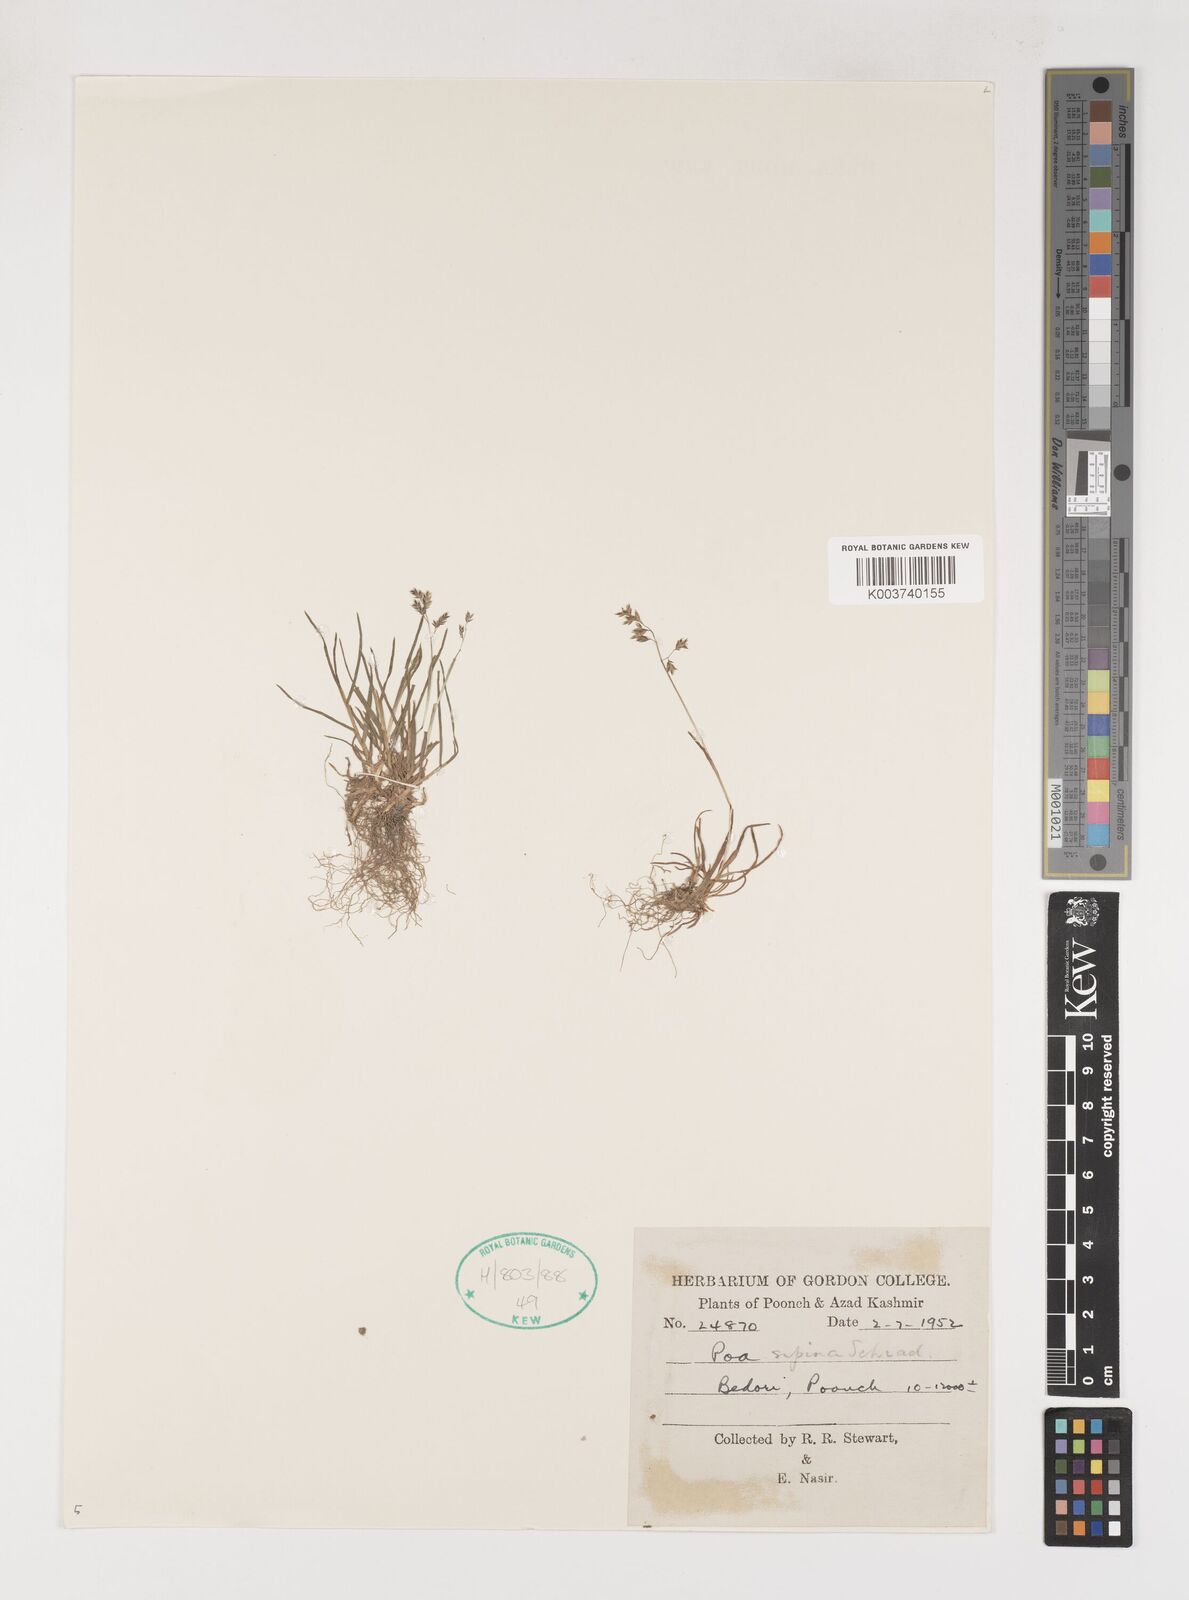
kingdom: Plantae
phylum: Tracheophyta
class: Liliopsida
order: Poales
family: Poaceae
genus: Poa
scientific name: Poa supina
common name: Supina bluegrass
